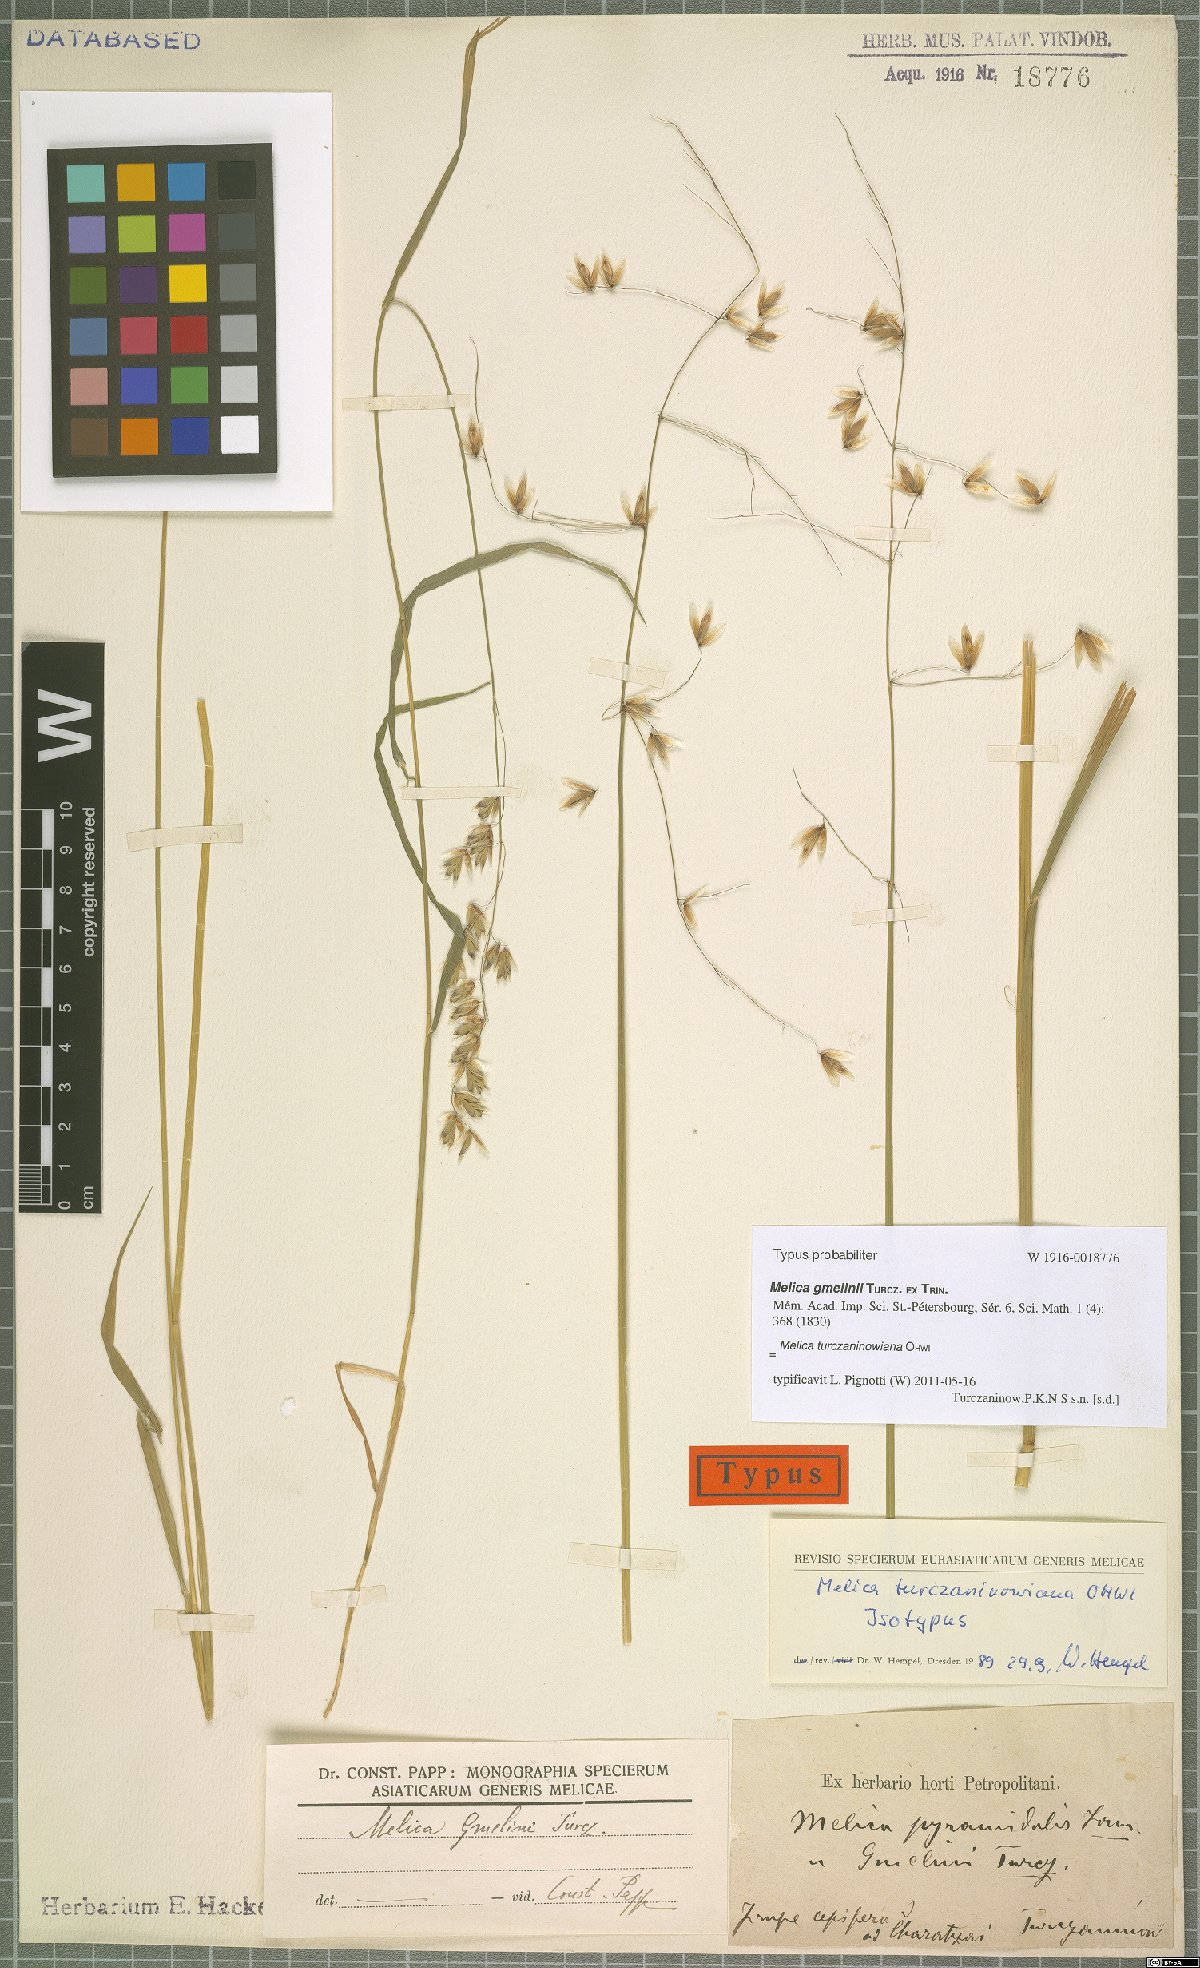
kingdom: Plantae
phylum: Tracheophyta
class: Liliopsida
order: Poales
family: Poaceae
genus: Melica
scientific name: Melica turczaninowiana
